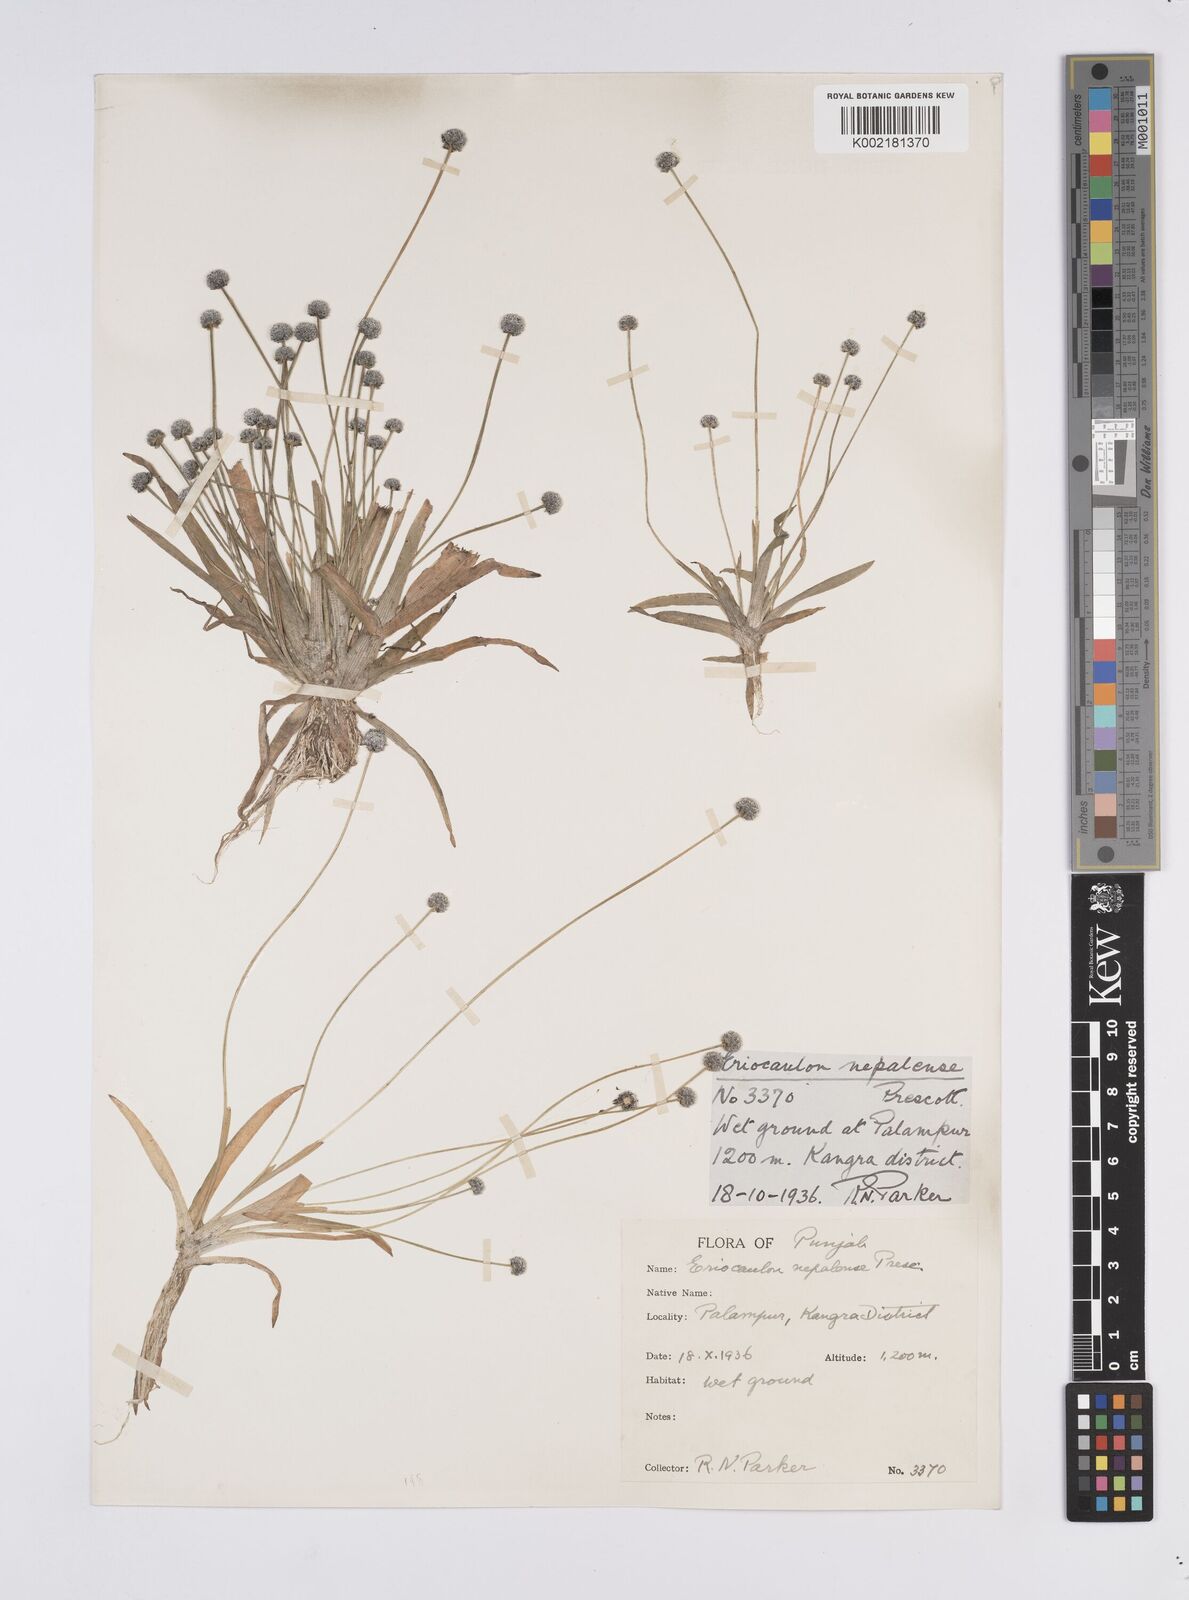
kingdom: Plantae
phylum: Tracheophyta
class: Liliopsida
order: Poales
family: Eriocaulaceae
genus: Eriocaulon
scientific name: Eriocaulon nepalense
